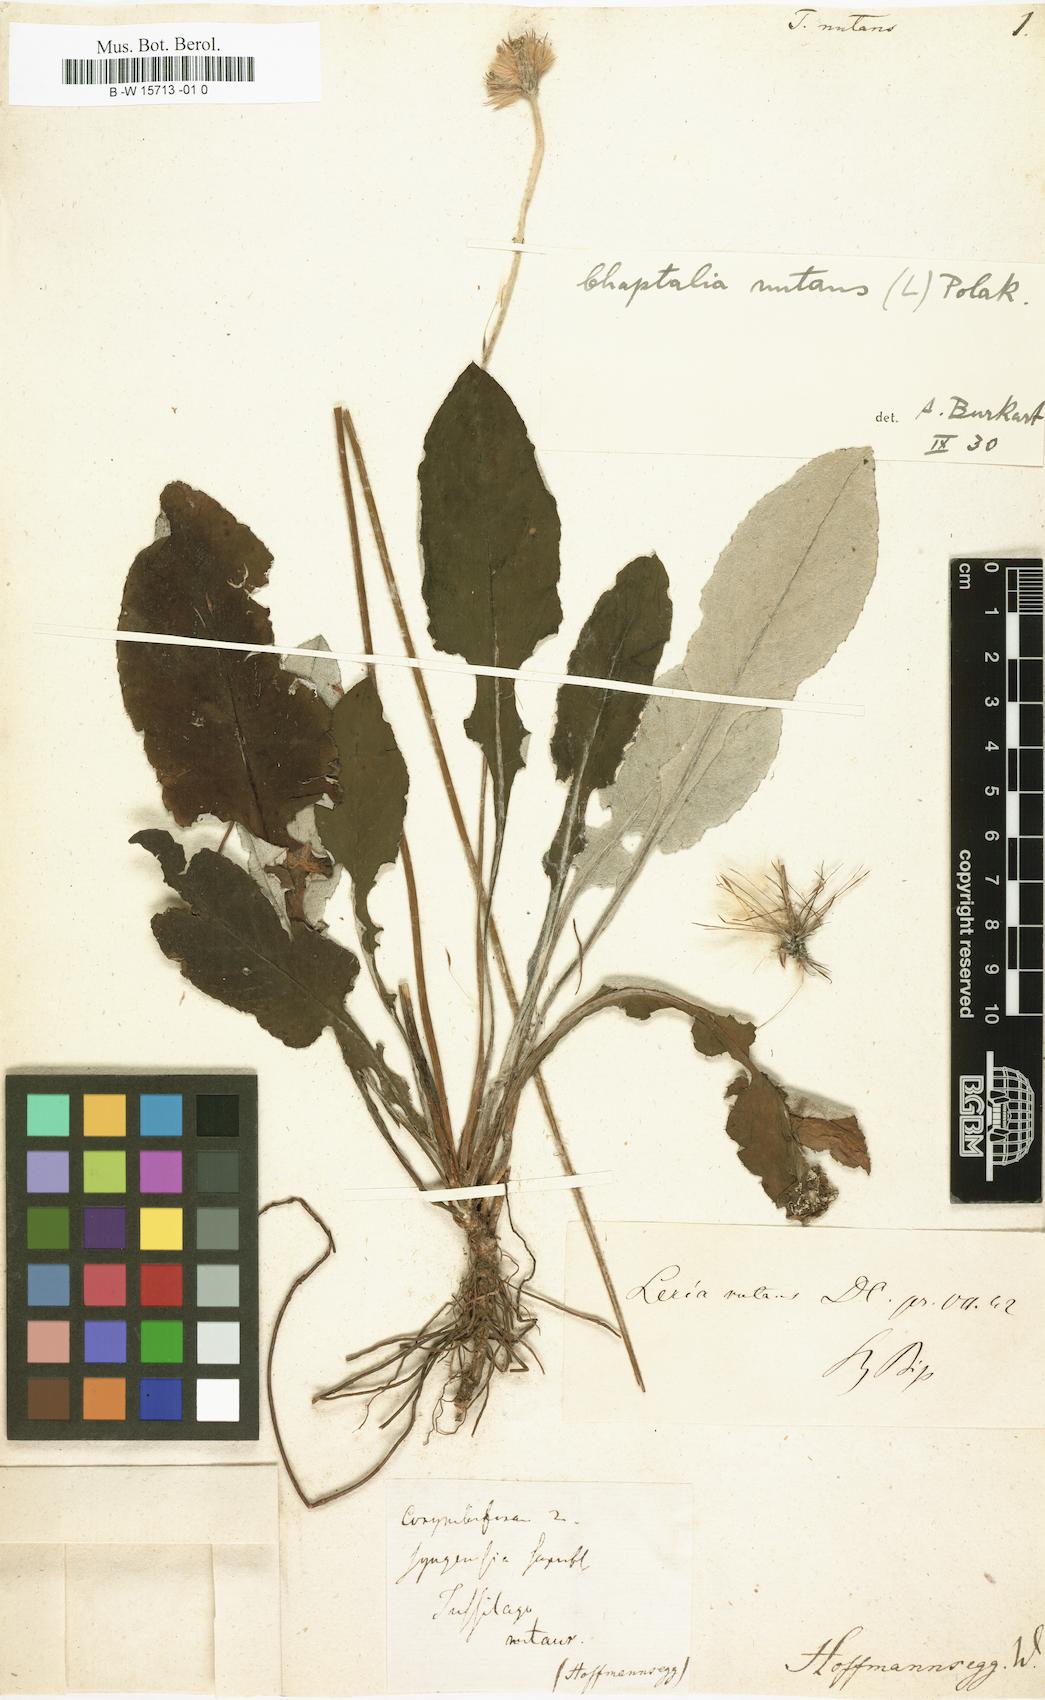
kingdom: Plantae
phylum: Tracheophyta
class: Magnoliopsida
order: Asterales
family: Asteraceae
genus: Chaptalia
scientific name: Chaptalia nutans
